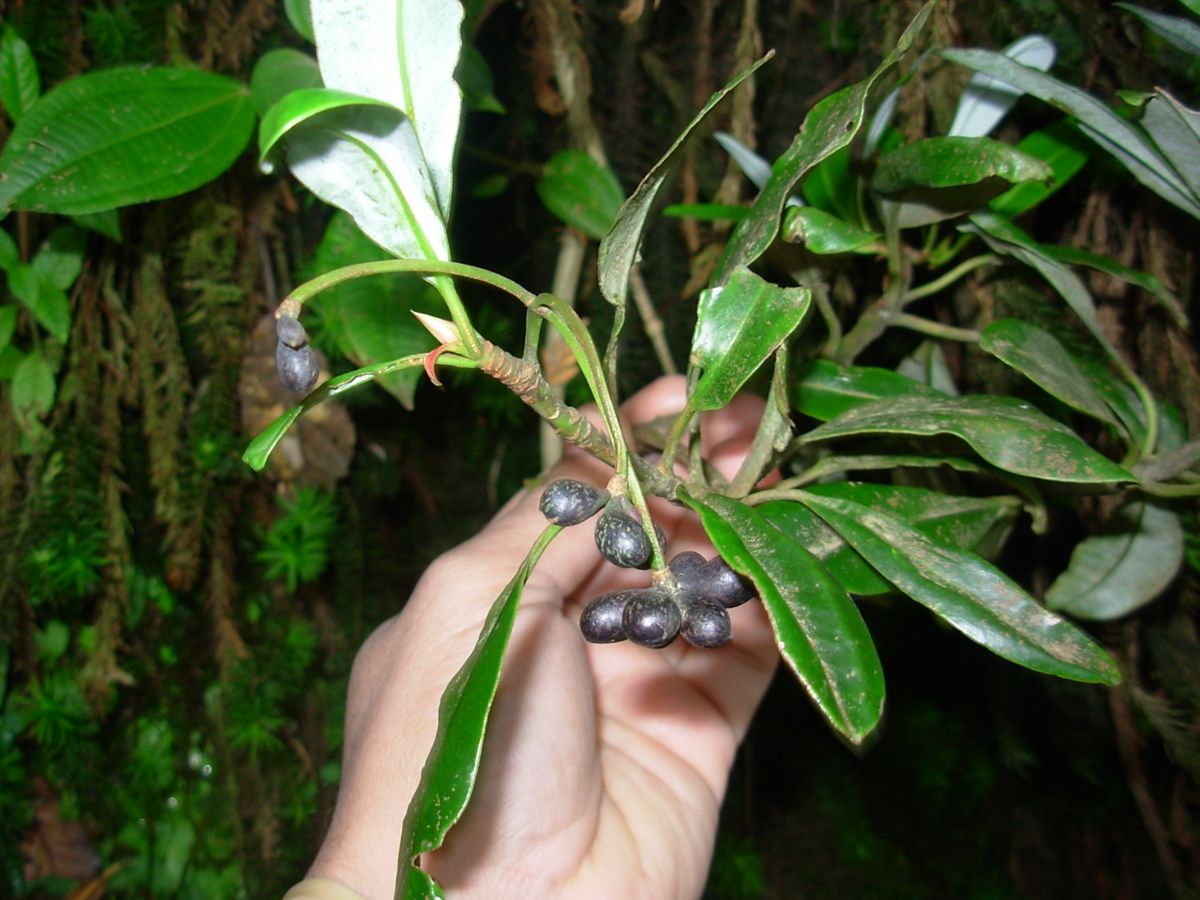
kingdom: Plantae
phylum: Tracheophyta
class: Magnoliopsida
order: Canellales
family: Winteraceae
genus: Drimys
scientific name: Drimys granadensis
